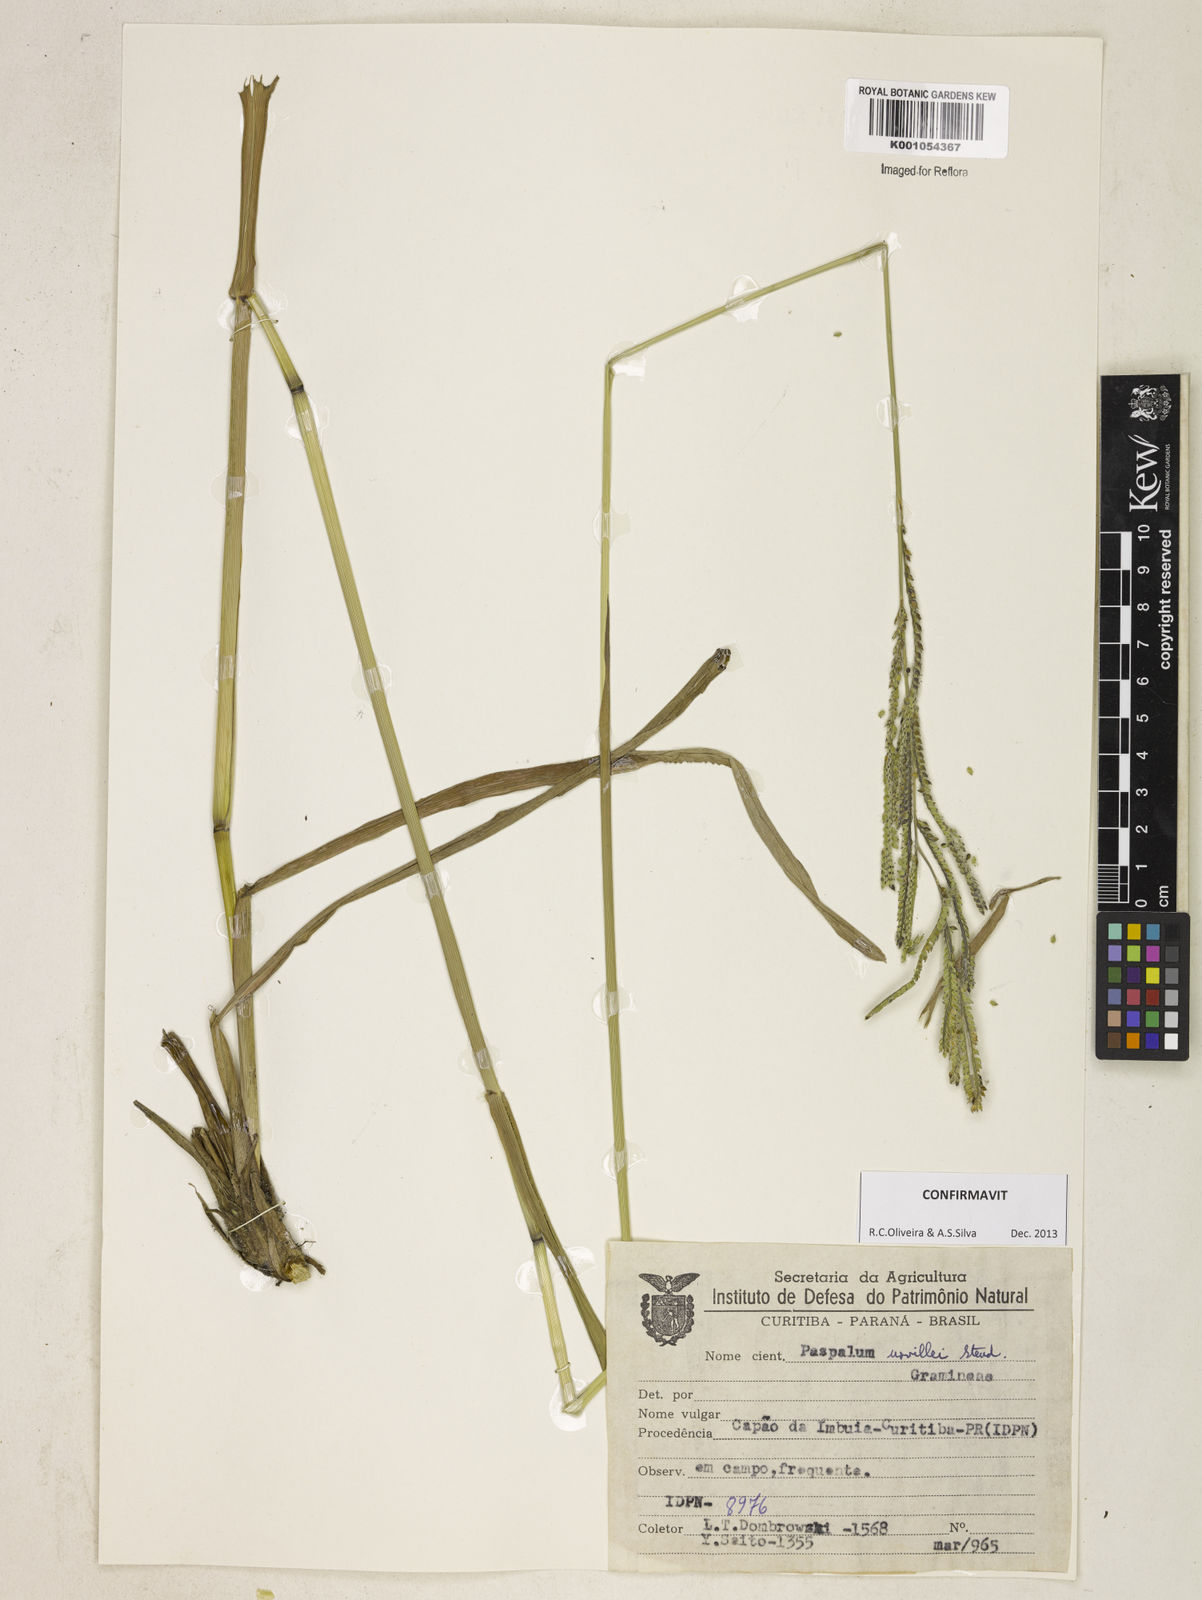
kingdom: Plantae
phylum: Tracheophyta
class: Liliopsida
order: Poales
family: Poaceae
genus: Paspalum
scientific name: Paspalum urvillei
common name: Vasey's grass
